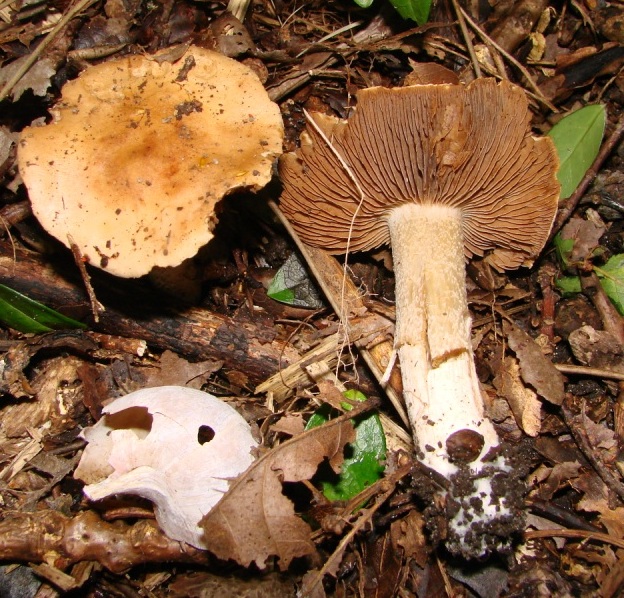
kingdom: Fungi
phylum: Basidiomycota
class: Agaricomycetes
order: Agaricales
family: Hymenogastraceae
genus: Hebeloma
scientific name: Hebeloma aestivale
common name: sommer-tåreblad
